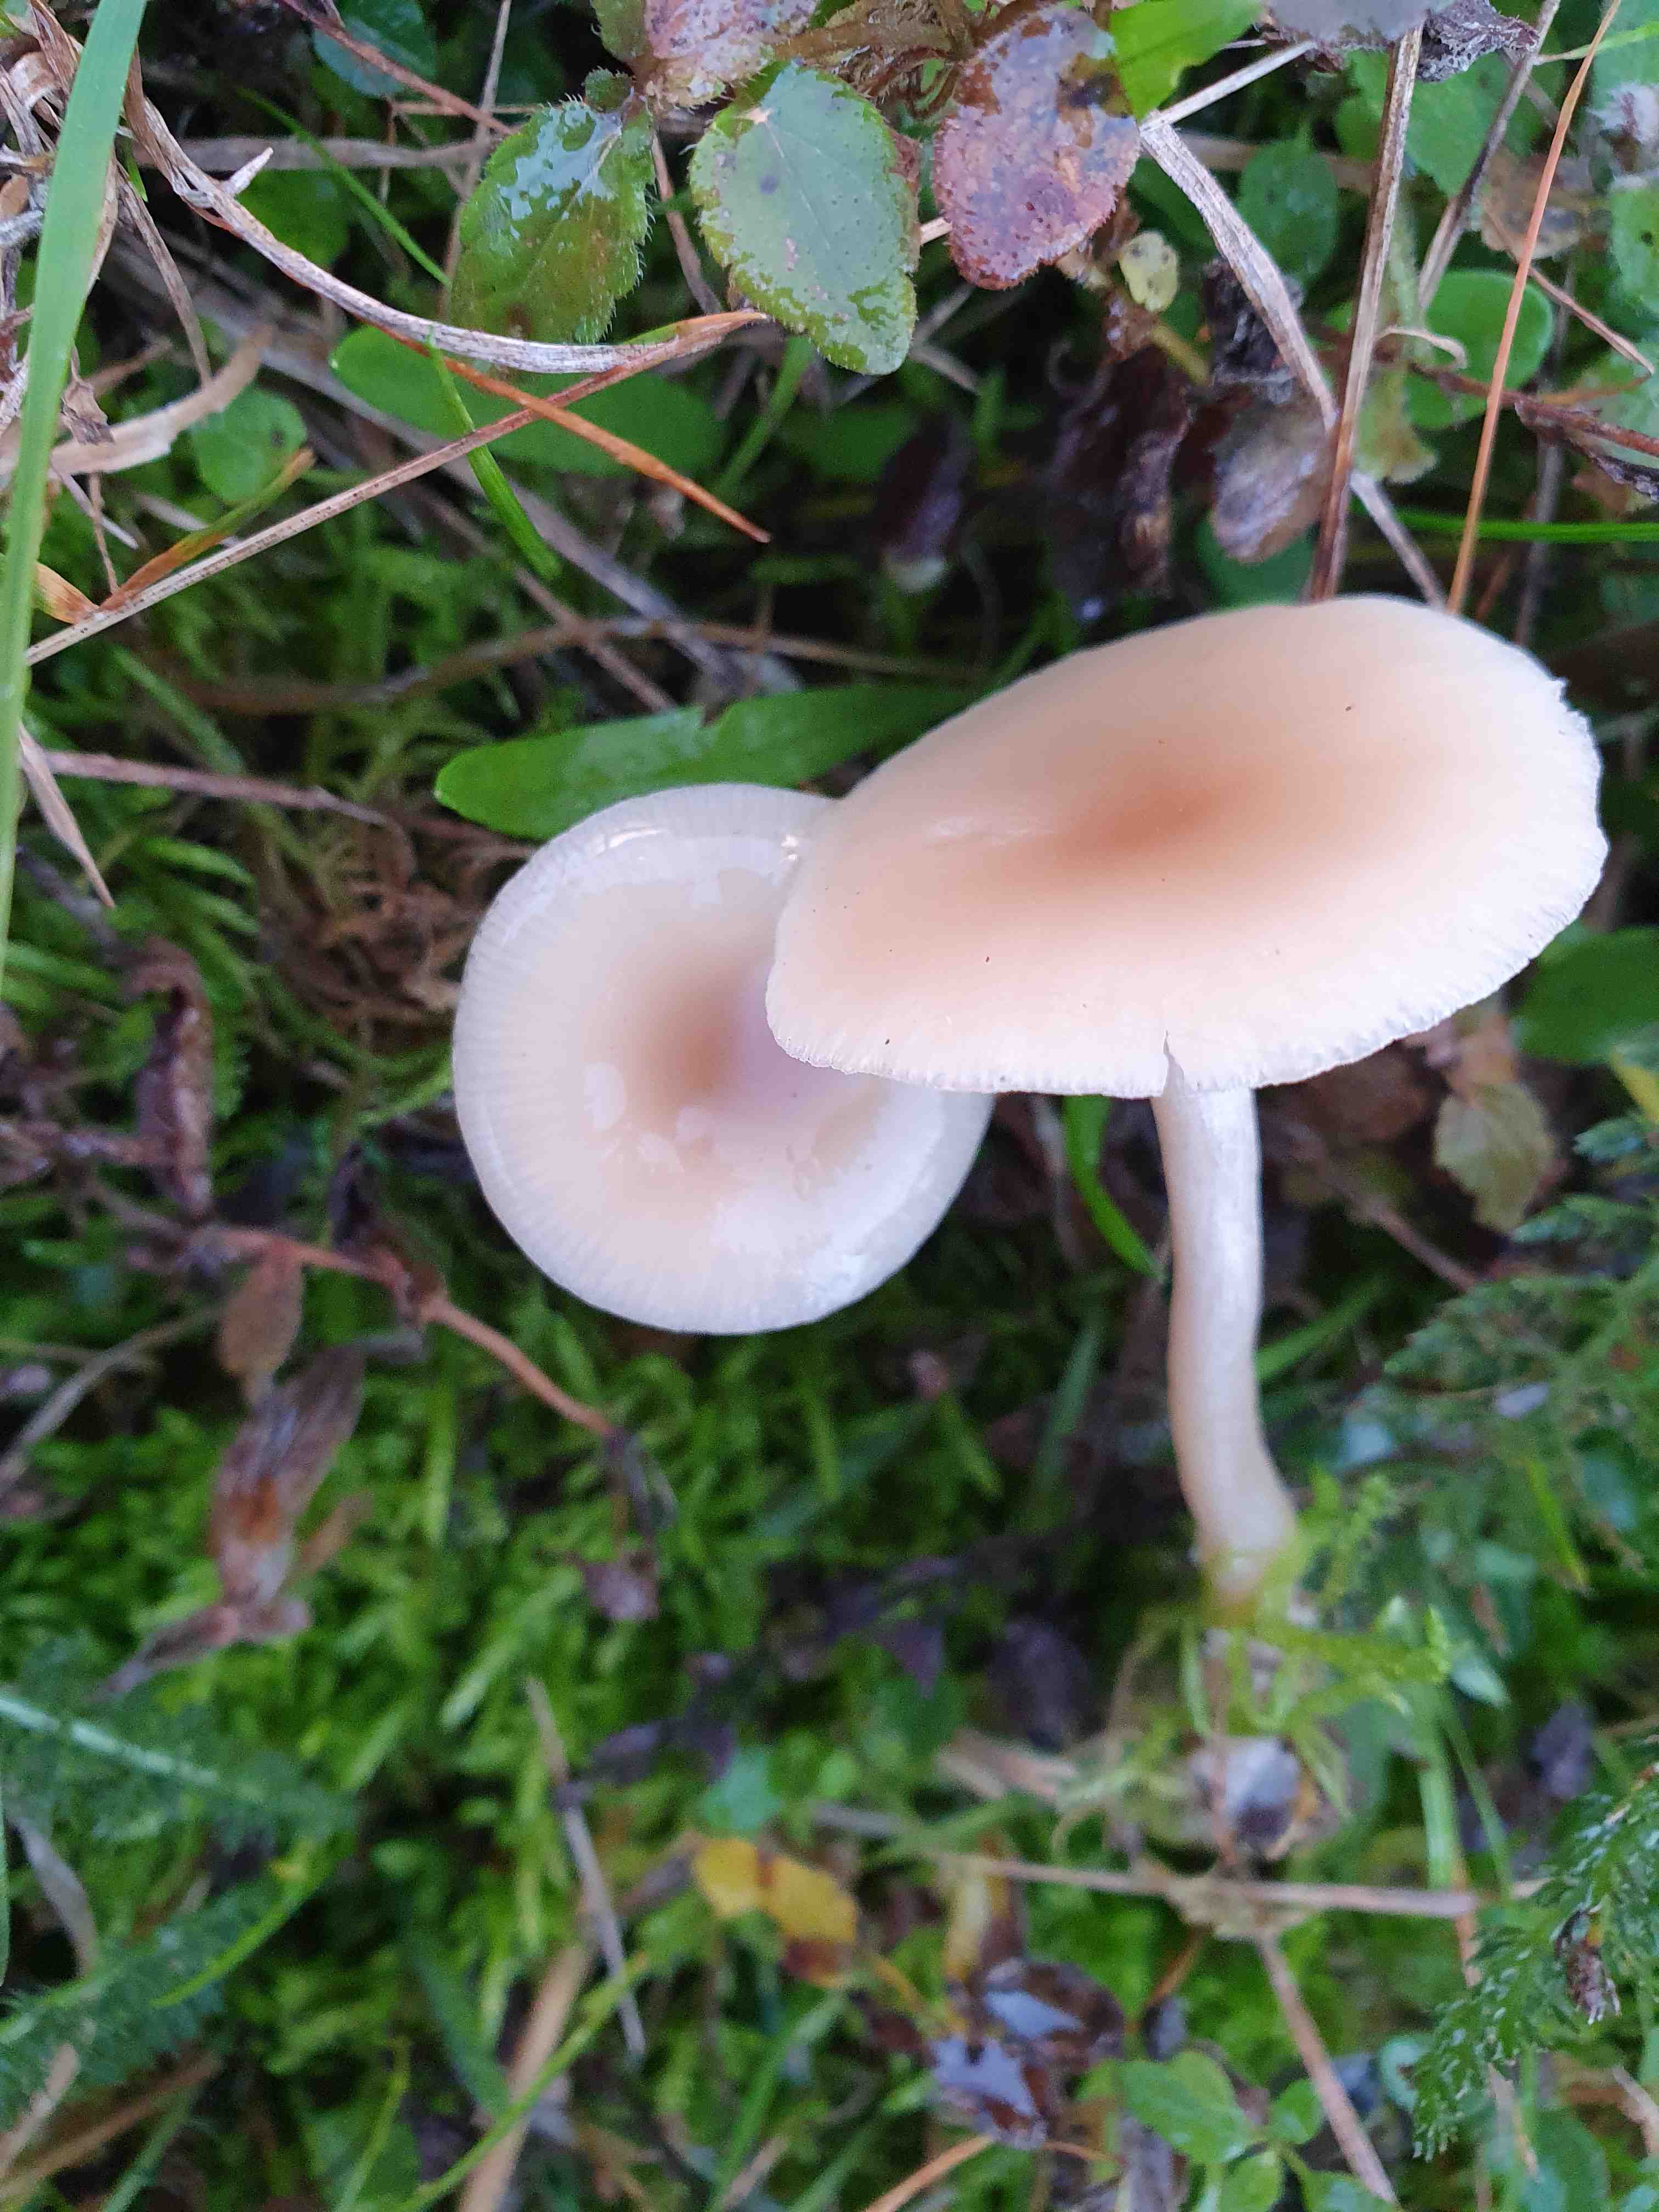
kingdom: Fungi
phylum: Basidiomycota
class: Agaricomycetes
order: Agaricales
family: Tricholomataceae
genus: Clitocybe
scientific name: Clitocybe fragrans
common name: vellugtende tragthat
